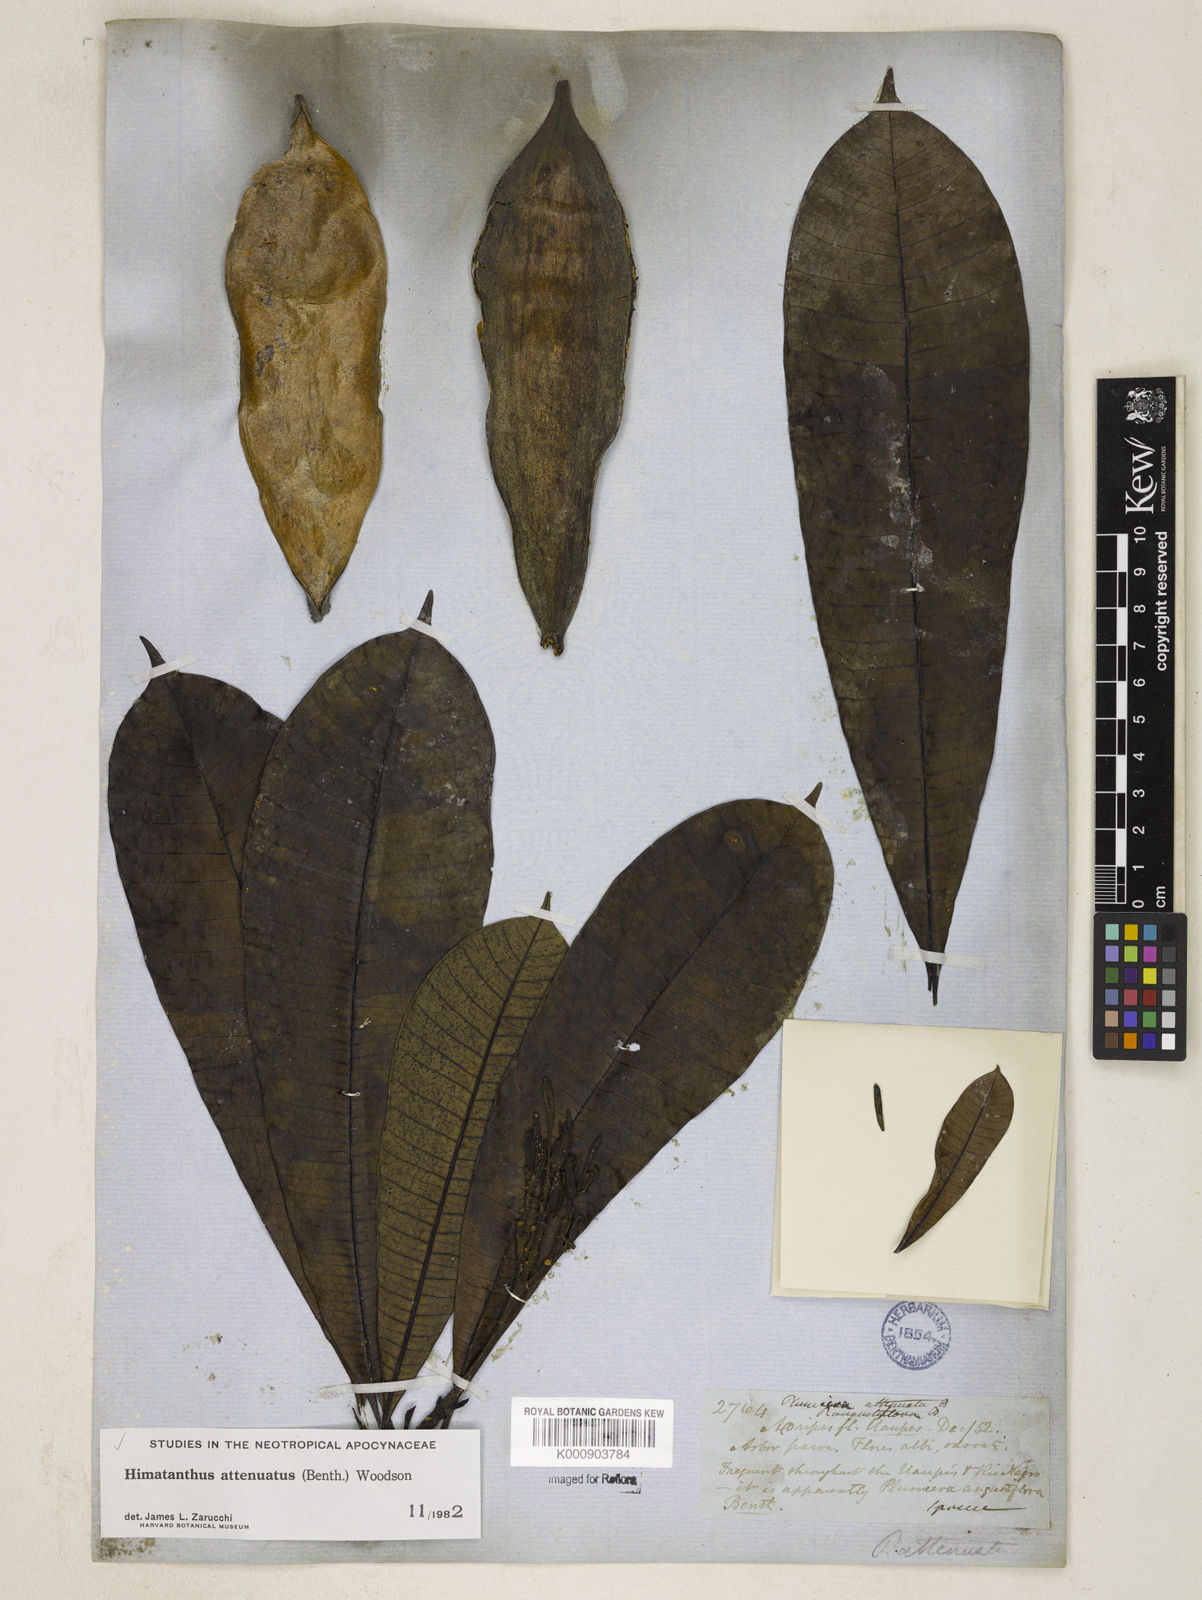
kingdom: Plantae
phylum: Tracheophyta
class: Magnoliopsida
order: Gentianales
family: Apocynaceae
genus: Himatanthus
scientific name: Himatanthus attenuatus
